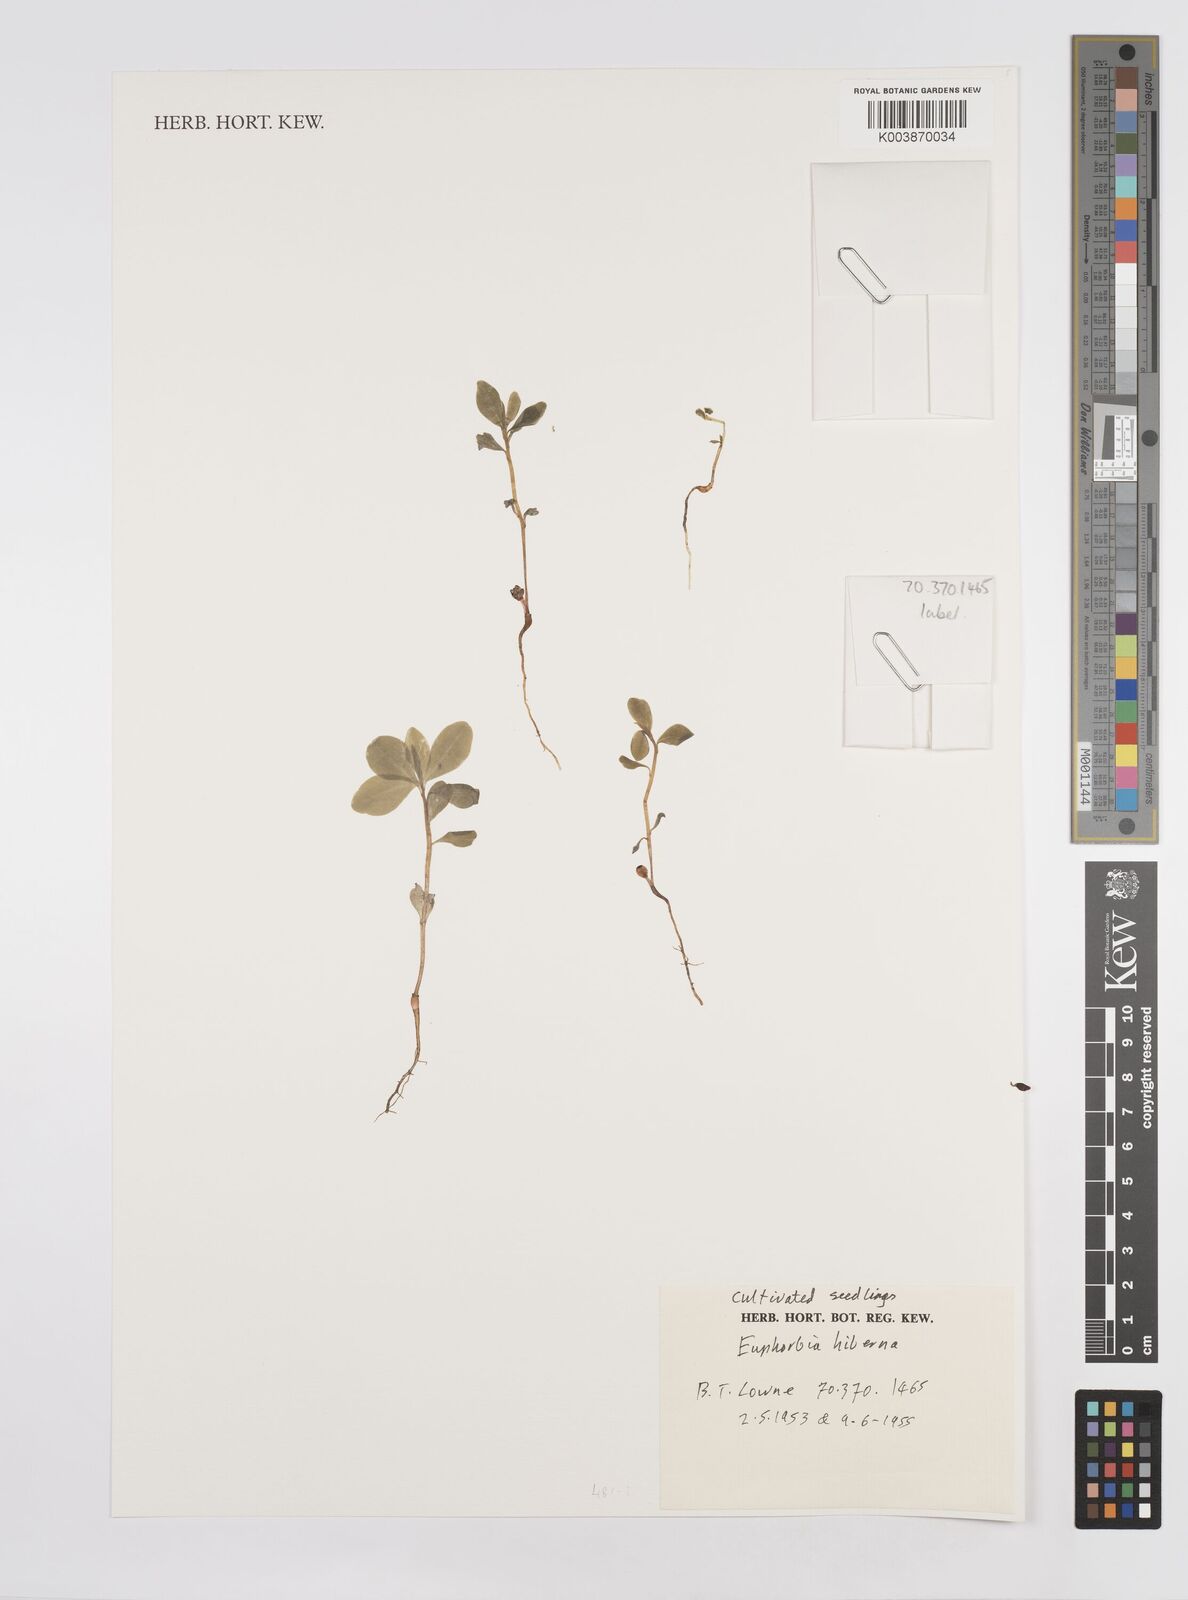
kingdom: Plantae
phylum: Tracheophyta
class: Magnoliopsida
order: Malpighiales
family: Euphorbiaceae
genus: Euphorbia
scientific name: Euphorbia hyberna
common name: Irish spurge
